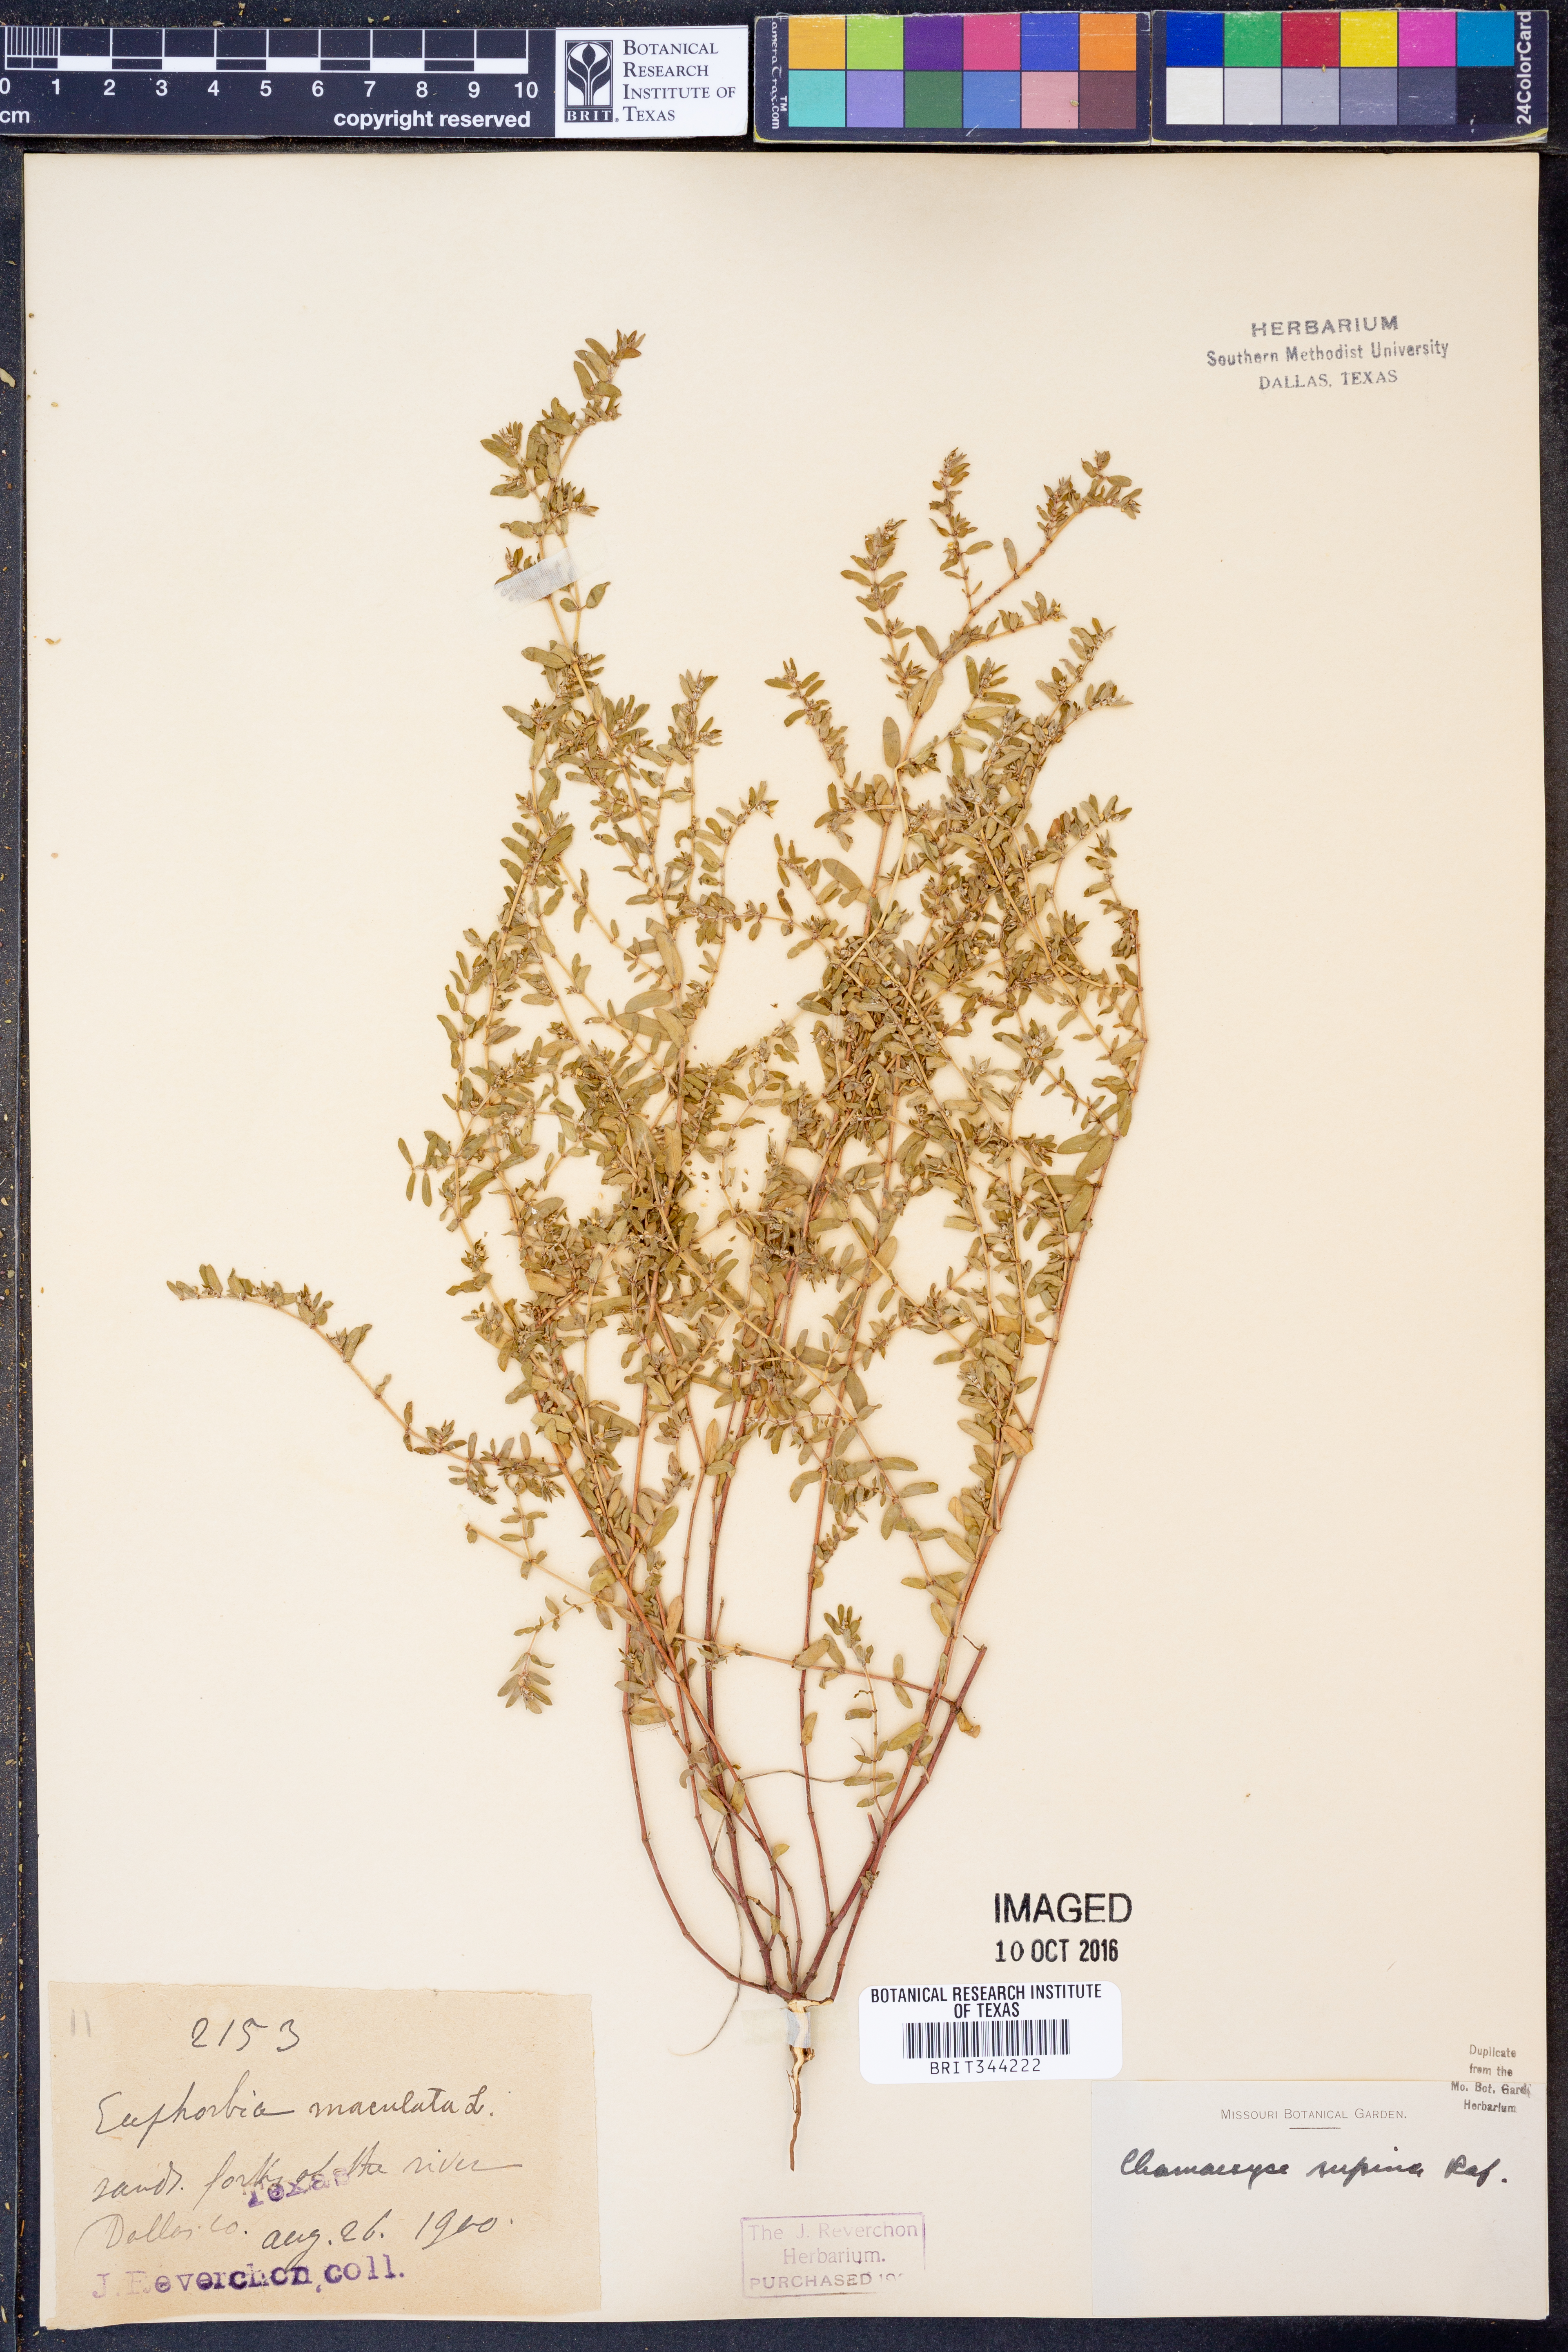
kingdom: Plantae
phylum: Tracheophyta
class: Magnoliopsida
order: Malpighiales
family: Euphorbiaceae
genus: Euphorbia
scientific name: Euphorbia maculata
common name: Spotted spurge
